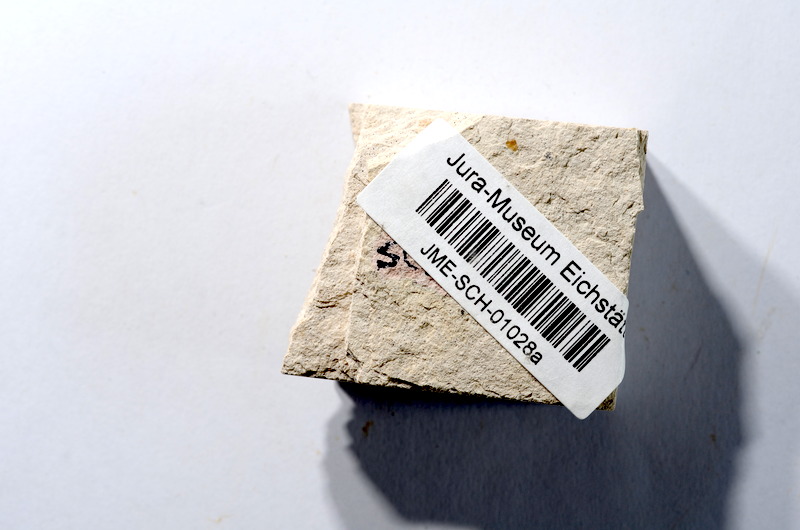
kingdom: Animalia
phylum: Chordata
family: Ascalaboidae
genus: Tharsis
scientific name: Tharsis dubius
